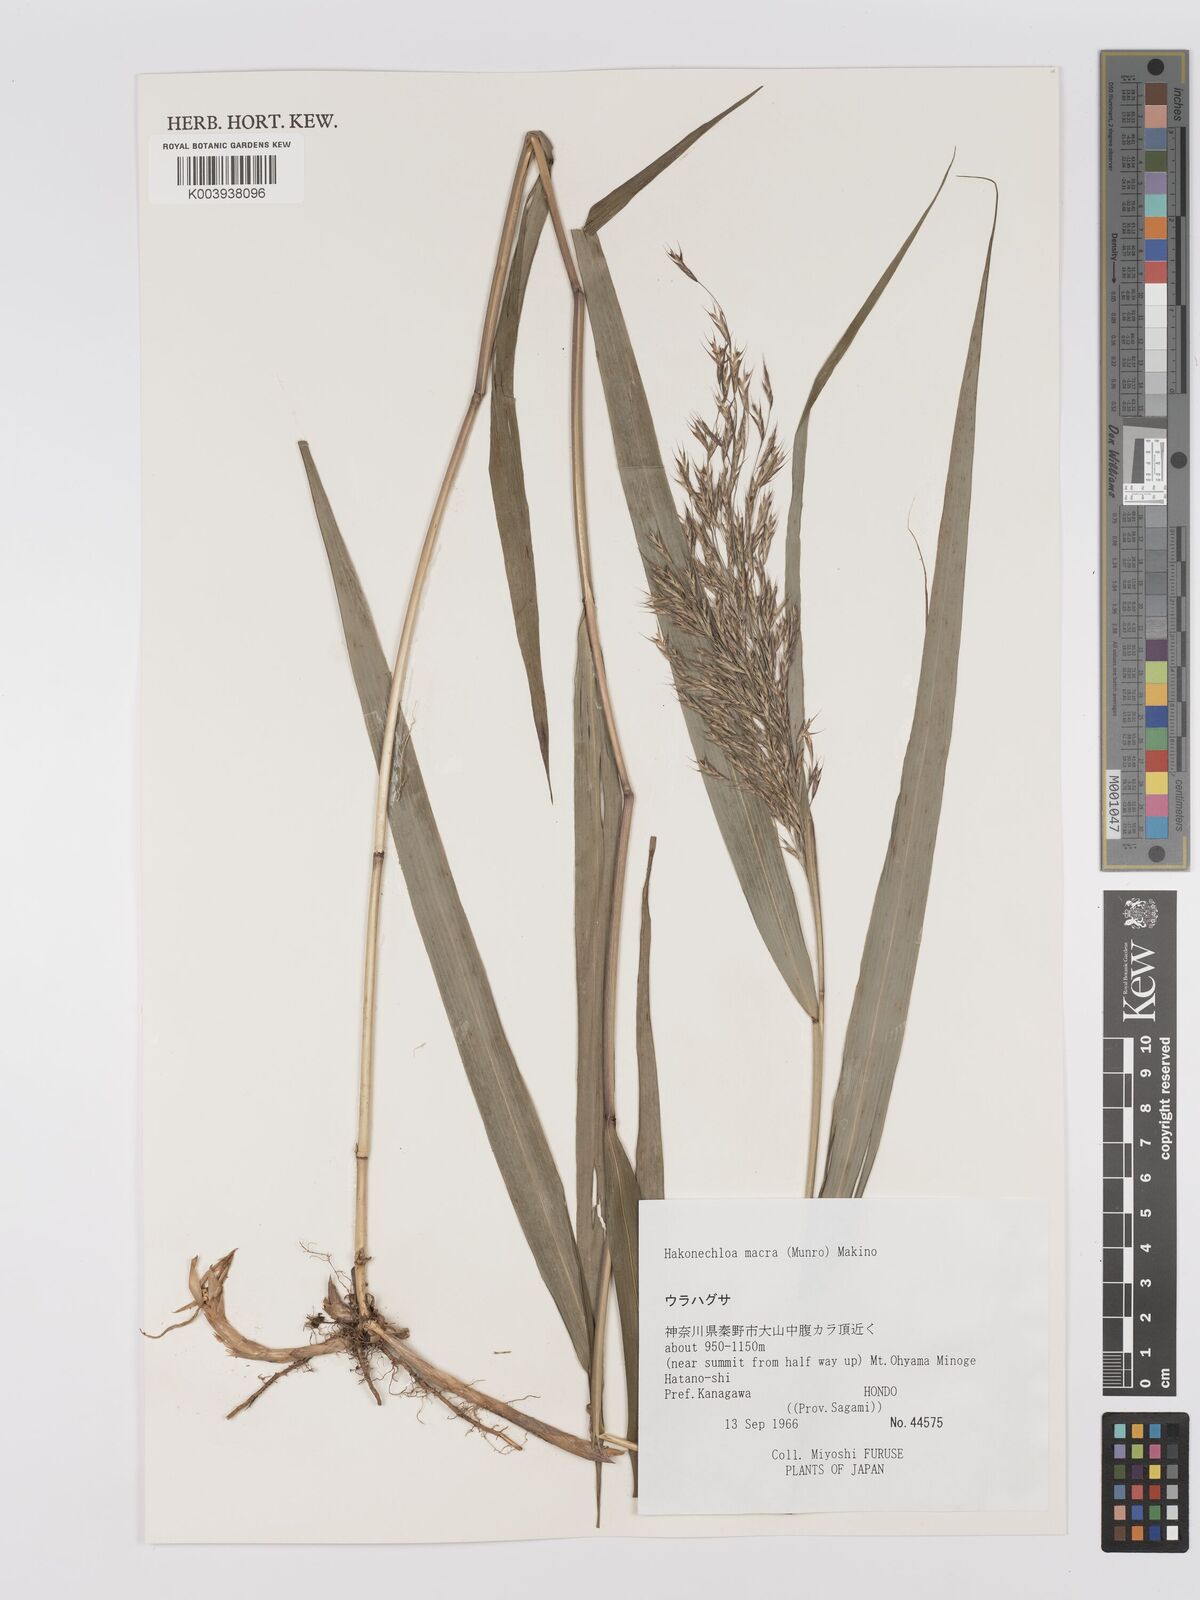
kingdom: Plantae
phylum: Tracheophyta
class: Liliopsida
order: Poales
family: Poaceae
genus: Hakonechloa
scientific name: Hakonechloa macra
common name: Hakone grass
